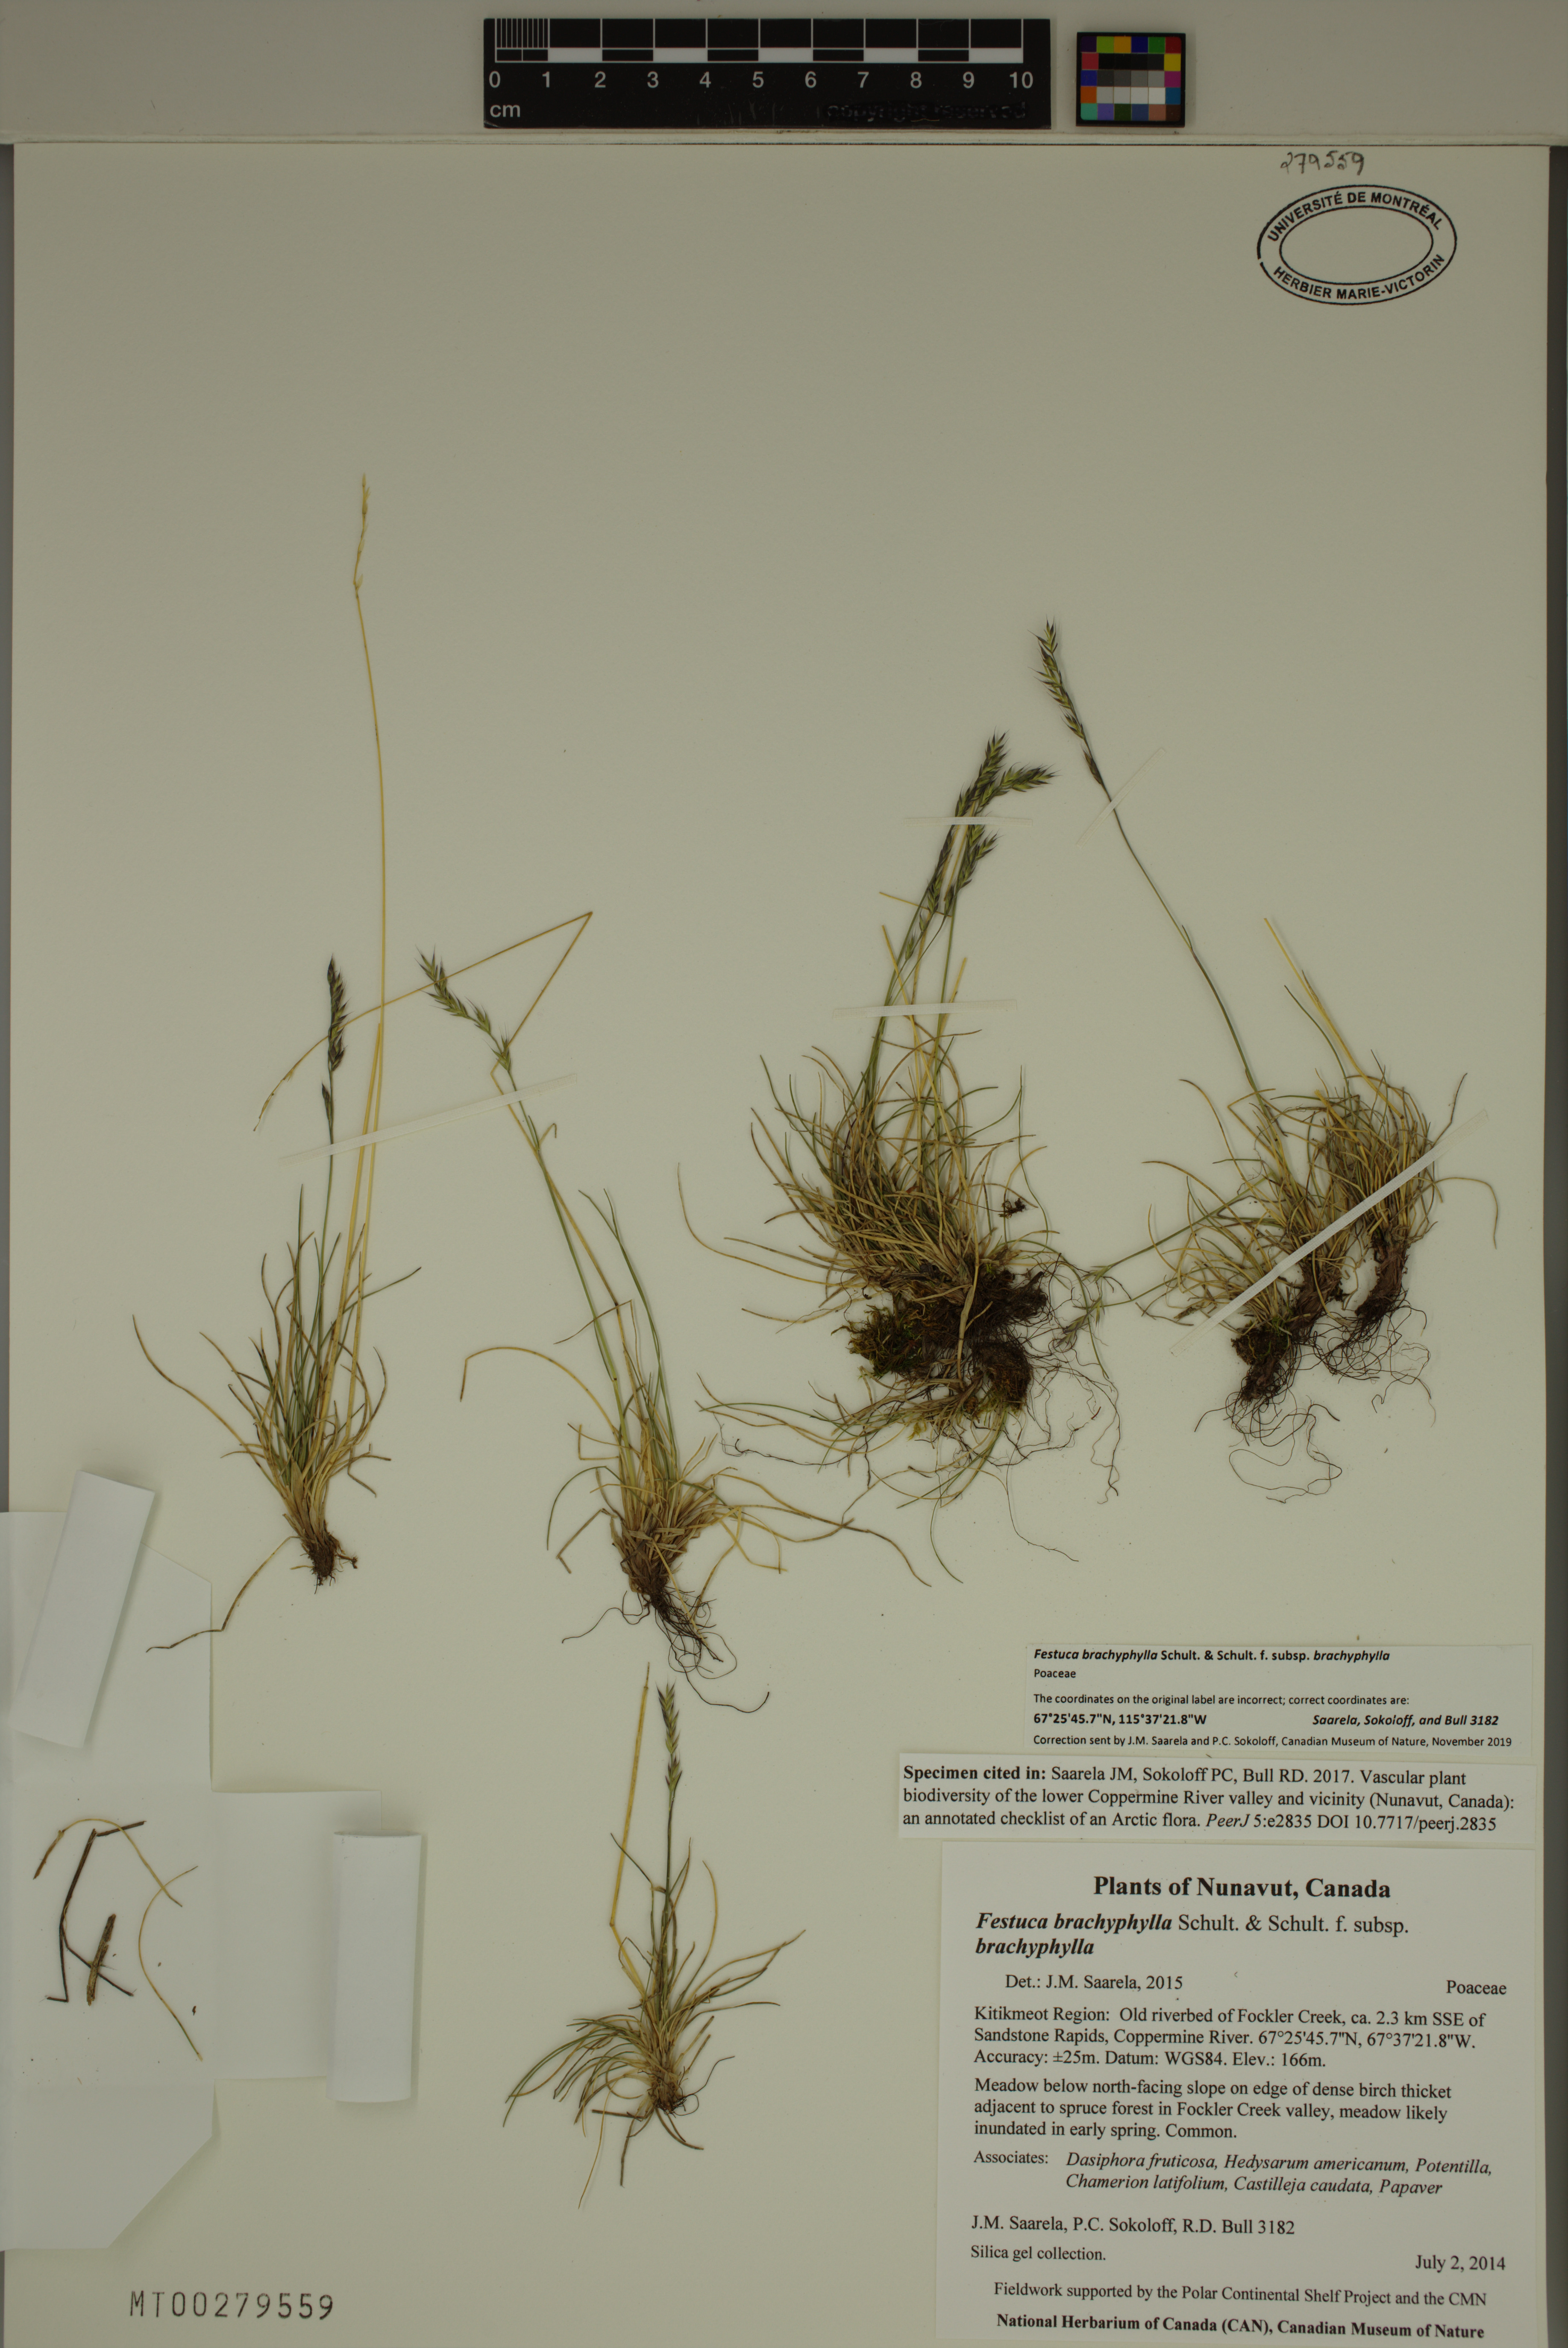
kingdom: Plantae
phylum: Tracheophyta
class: Liliopsida
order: Poales
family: Poaceae
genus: Festuca
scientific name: Festuca brachyphylla
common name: Alpine fescue
